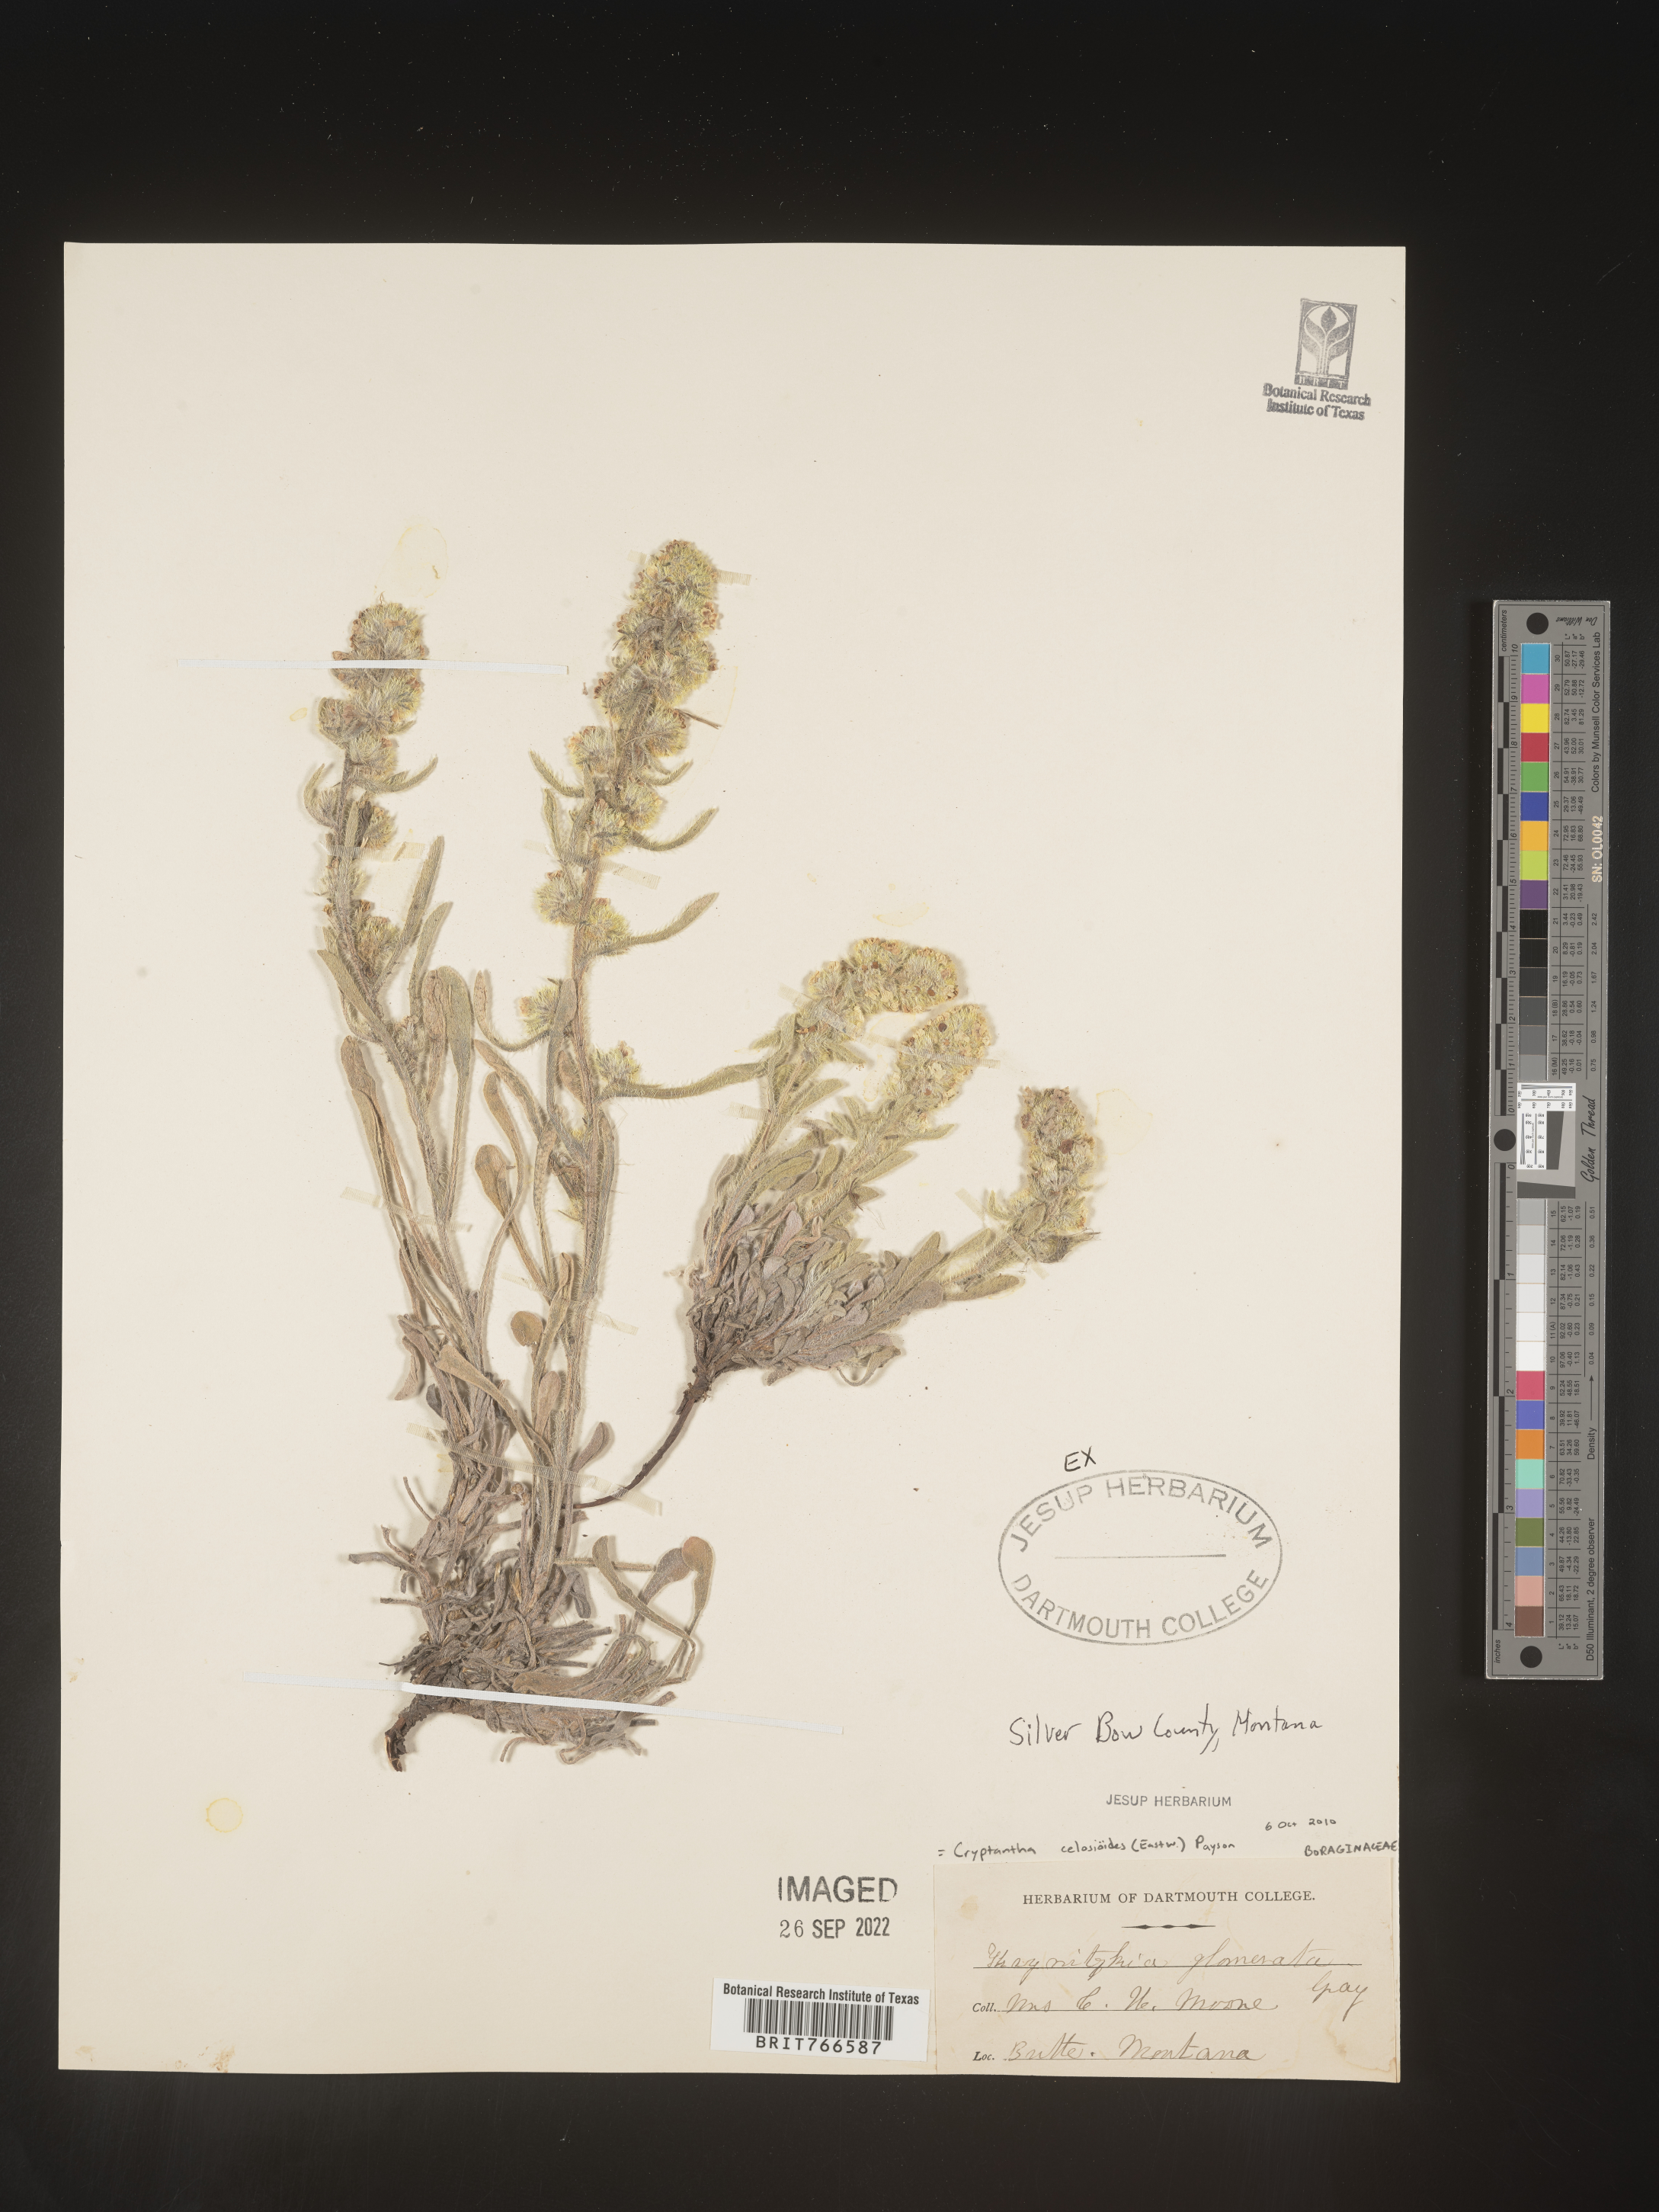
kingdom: Plantae
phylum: Tracheophyta
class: Magnoliopsida
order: Boraginales
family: Boraginaceae
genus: Cryptantha
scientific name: Cryptantha
